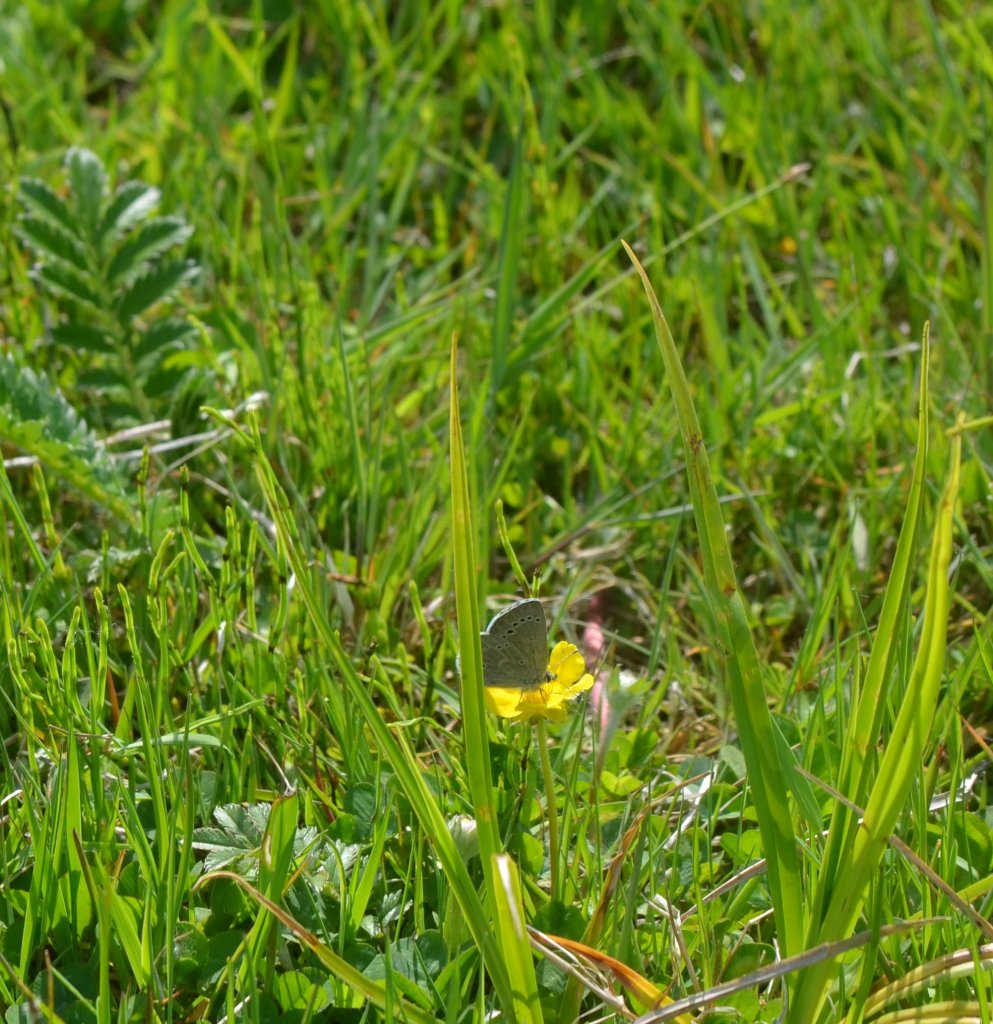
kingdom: Animalia
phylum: Arthropoda
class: Insecta
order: Lepidoptera
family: Lycaenidae
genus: Glaucopsyche
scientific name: Glaucopsyche lygdamus
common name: Silvery Blue
